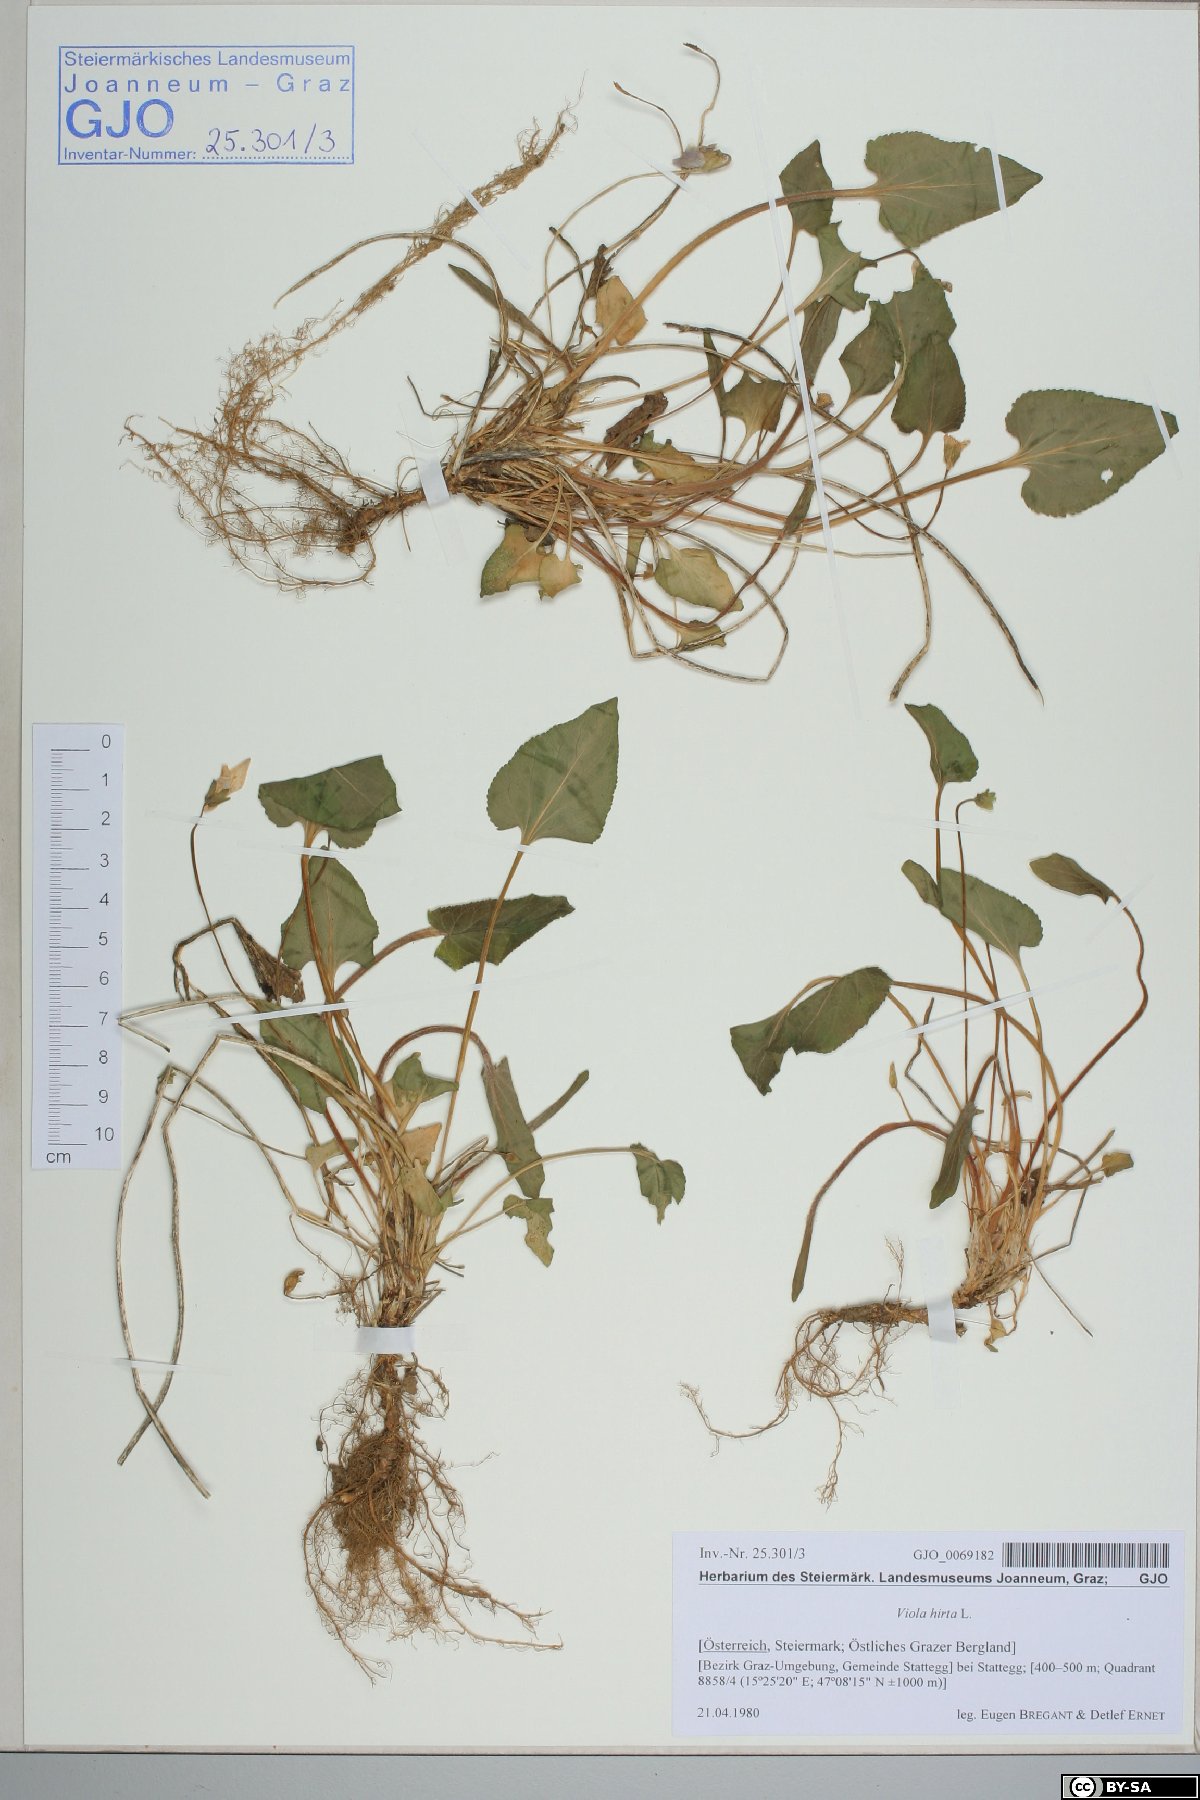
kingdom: Plantae
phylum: Tracheophyta
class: Magnoliopsida
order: Malpighiales
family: Violaceae
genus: Viola
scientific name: Viola hirta
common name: Hairy violet
